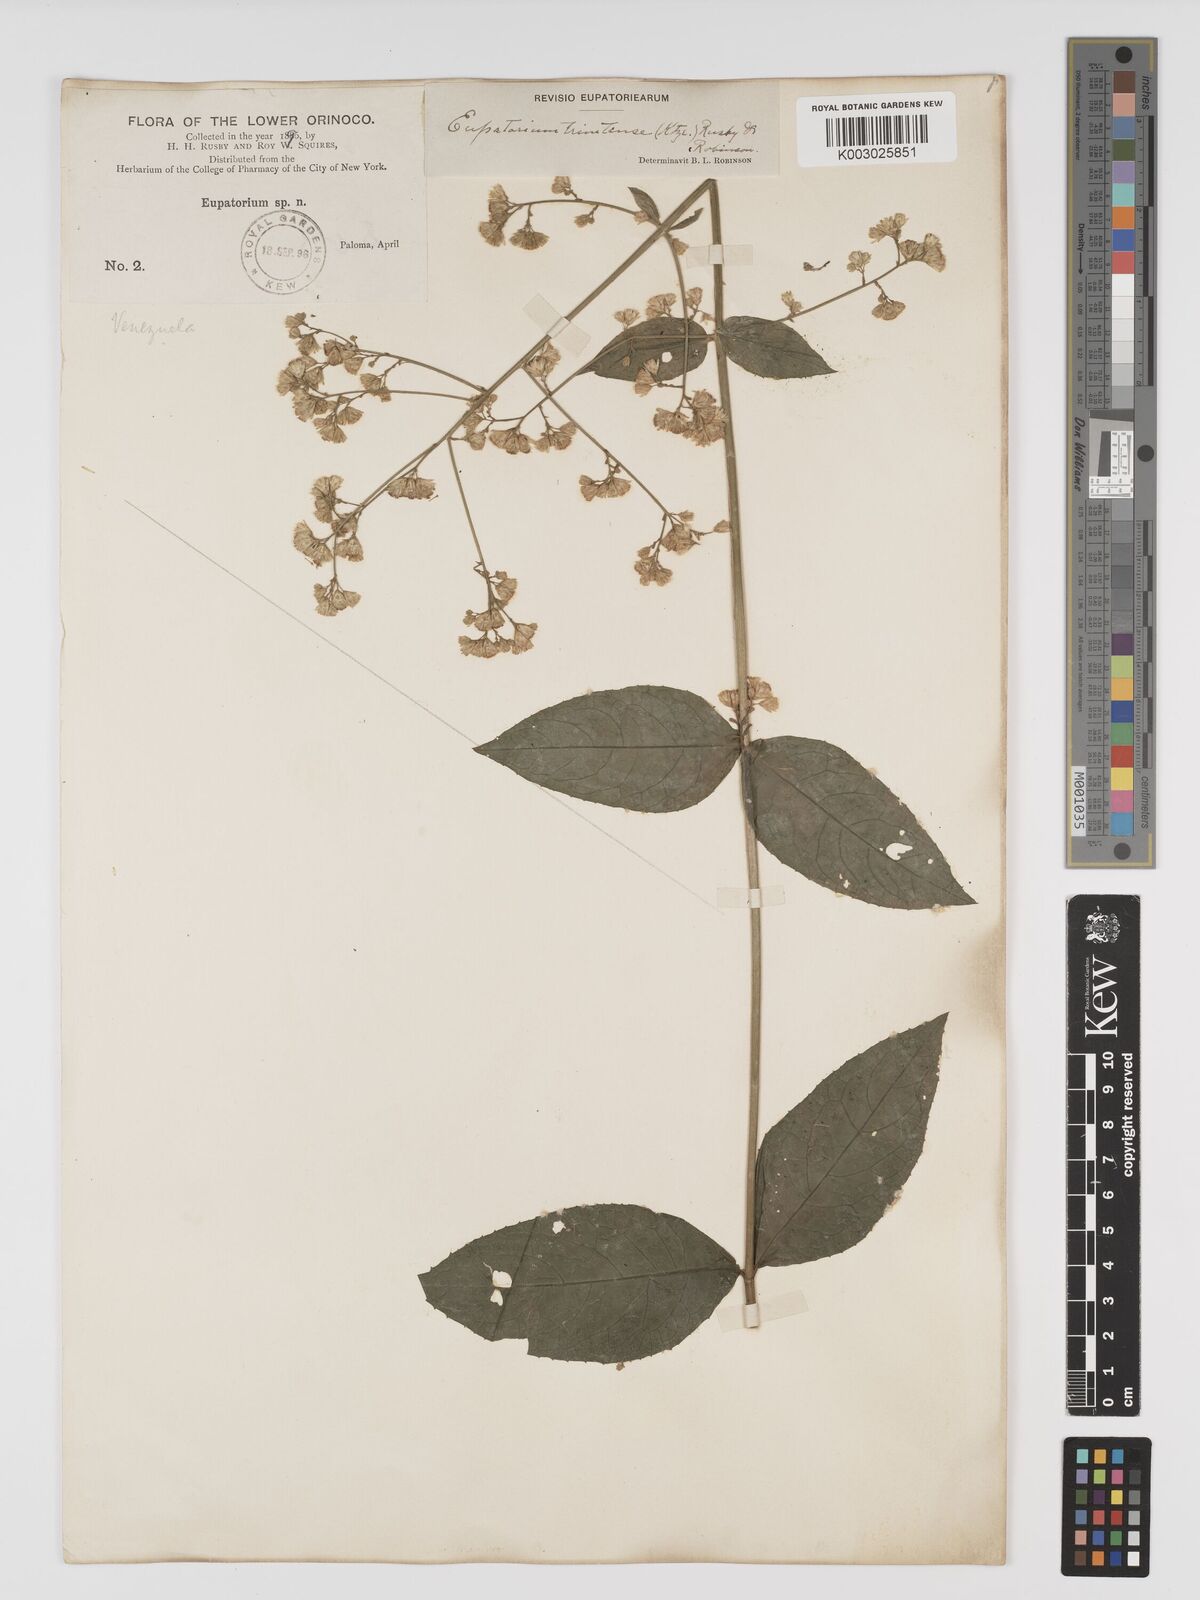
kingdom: Plantae
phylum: Tracheophyta
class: Magnoliopsida
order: Asterales
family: Asteraceae
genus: Ayapana
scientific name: Ayapana trinitensis
